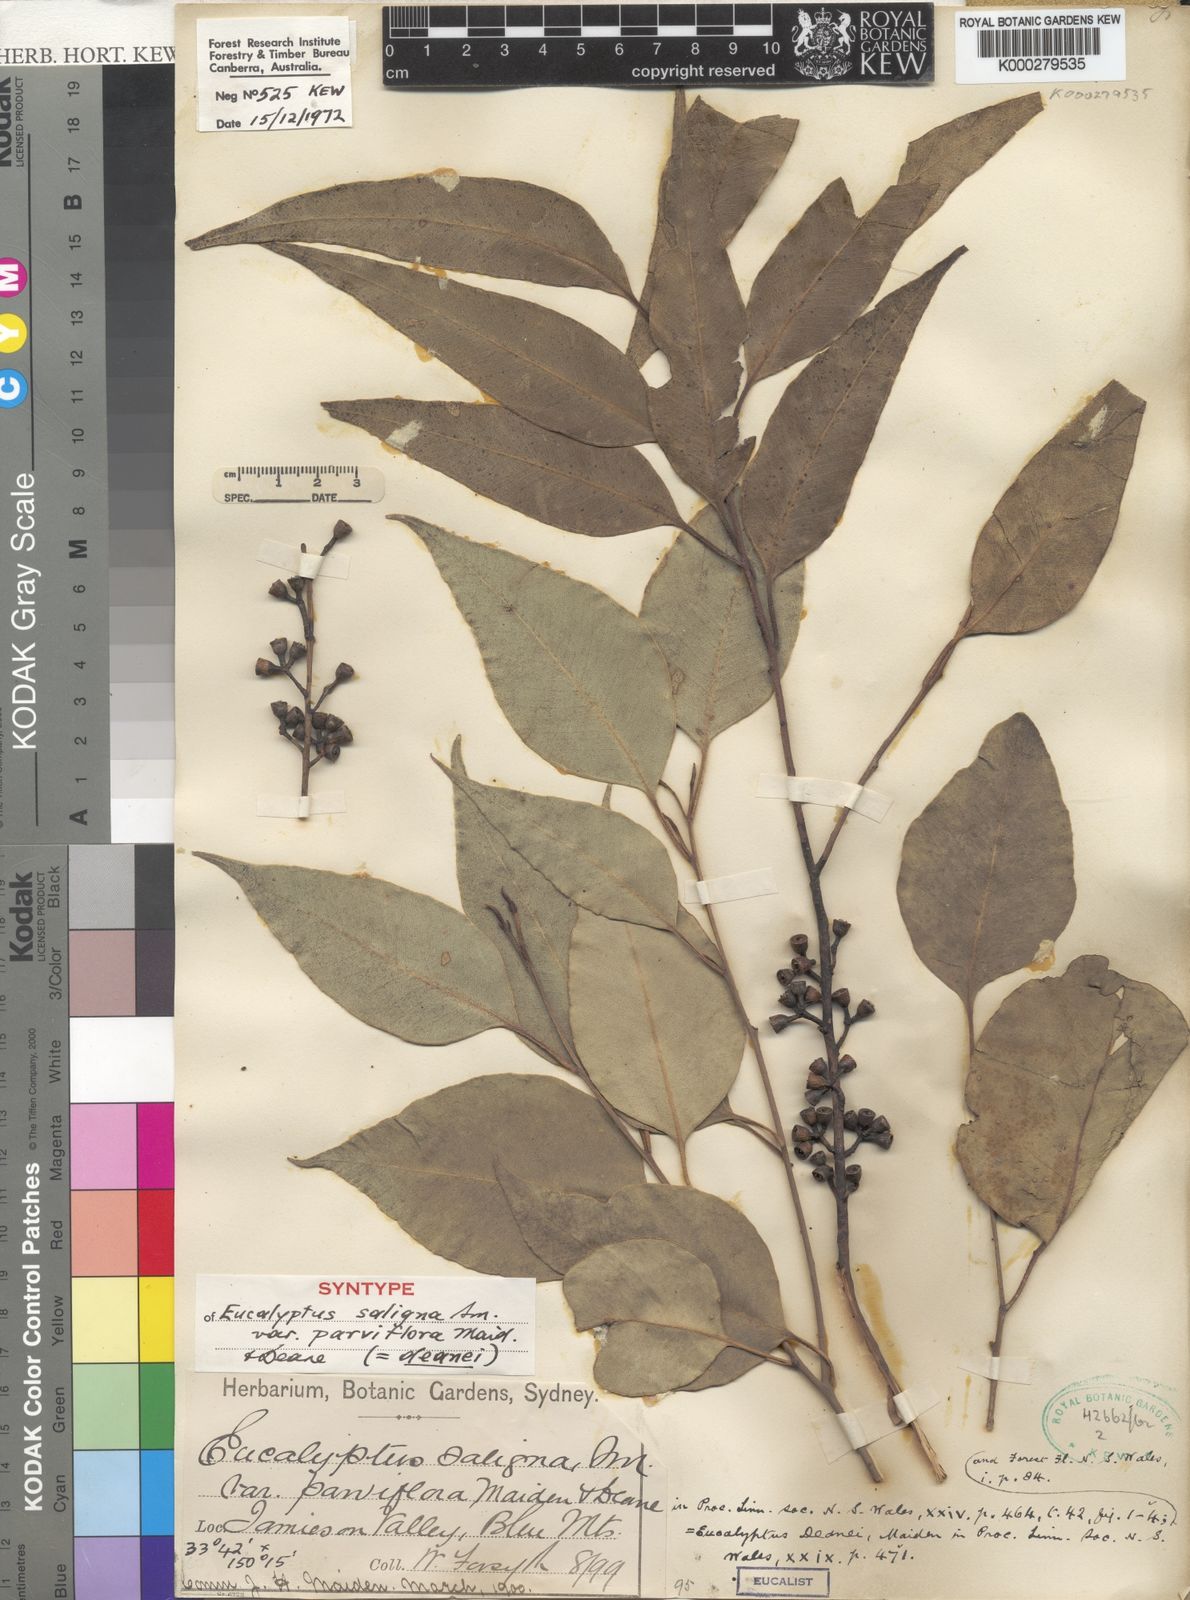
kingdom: Plantae
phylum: Tracheophyta
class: Magnoliopsida
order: Myrtales
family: Myrtaceae
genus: Eucalyptus
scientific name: Eucalyptus deanei
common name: Brown gum
